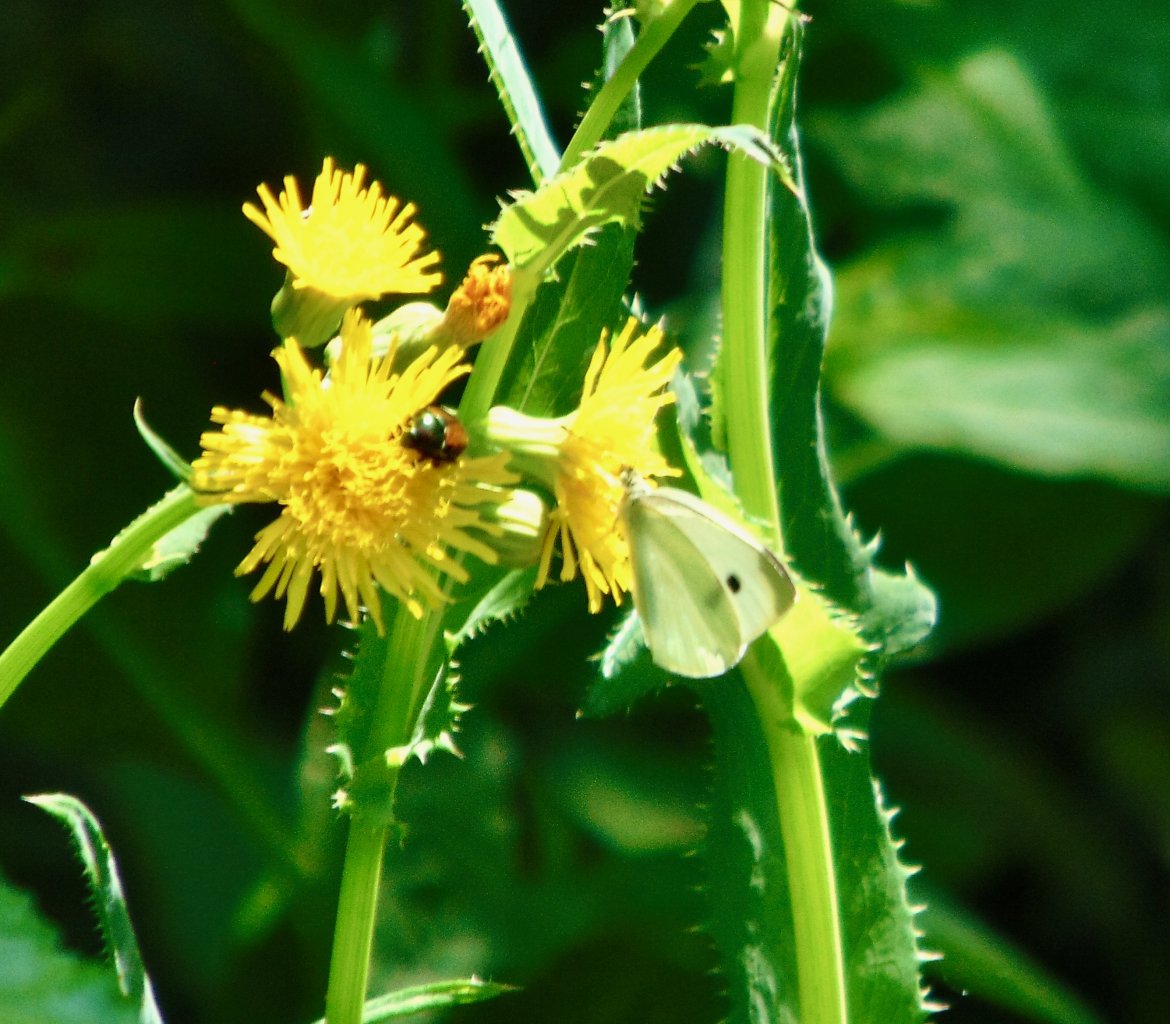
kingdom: Animalia
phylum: Arthropoda
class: Insecta
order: Lepidoptera
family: Pieridae
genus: Pieris
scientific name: Pieris rapae
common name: Cabbage White
